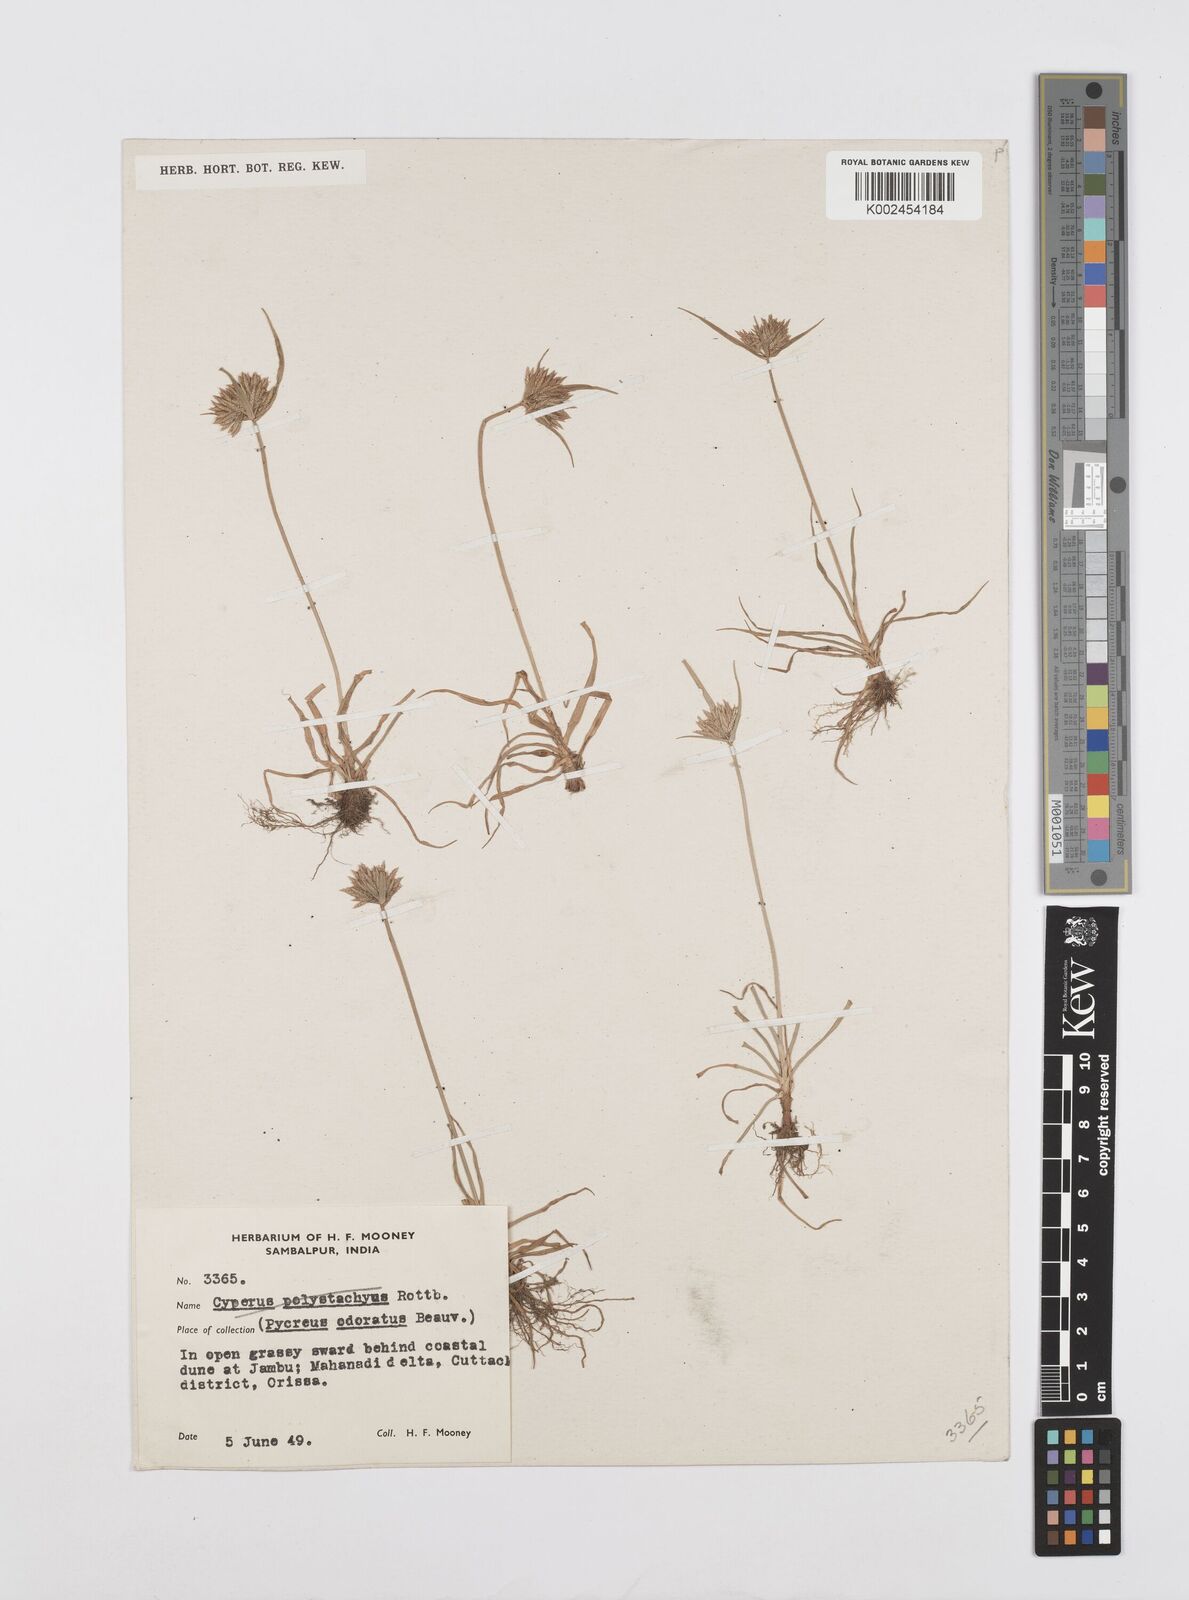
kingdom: Plantae
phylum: Tracheophyta
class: Liliopsida
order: Poales
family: Cyperaceae
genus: Cyperus
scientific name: Cyperus polystachyos
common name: Bunchy flat sedge
